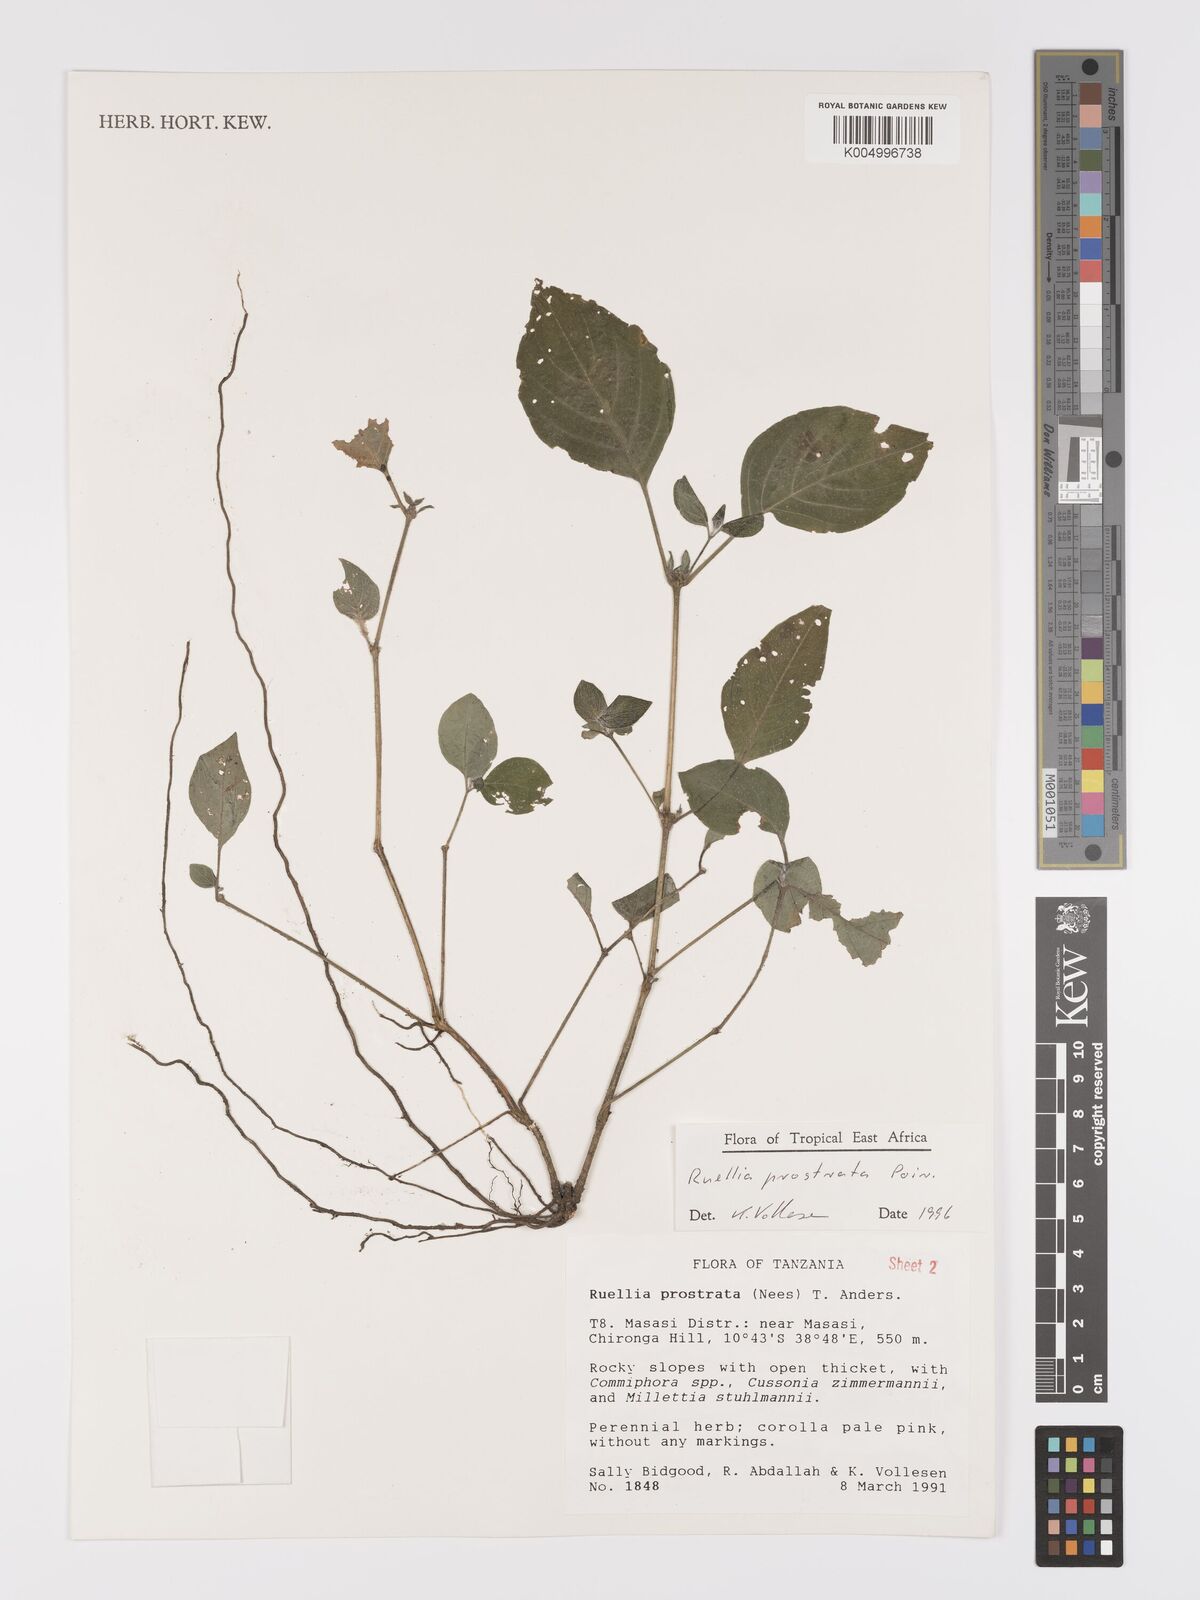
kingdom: Plantae
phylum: Tracheophyta
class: Magnoliopsida
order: Lamiales
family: Acanthaceae
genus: Ruellia
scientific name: Ruellia
